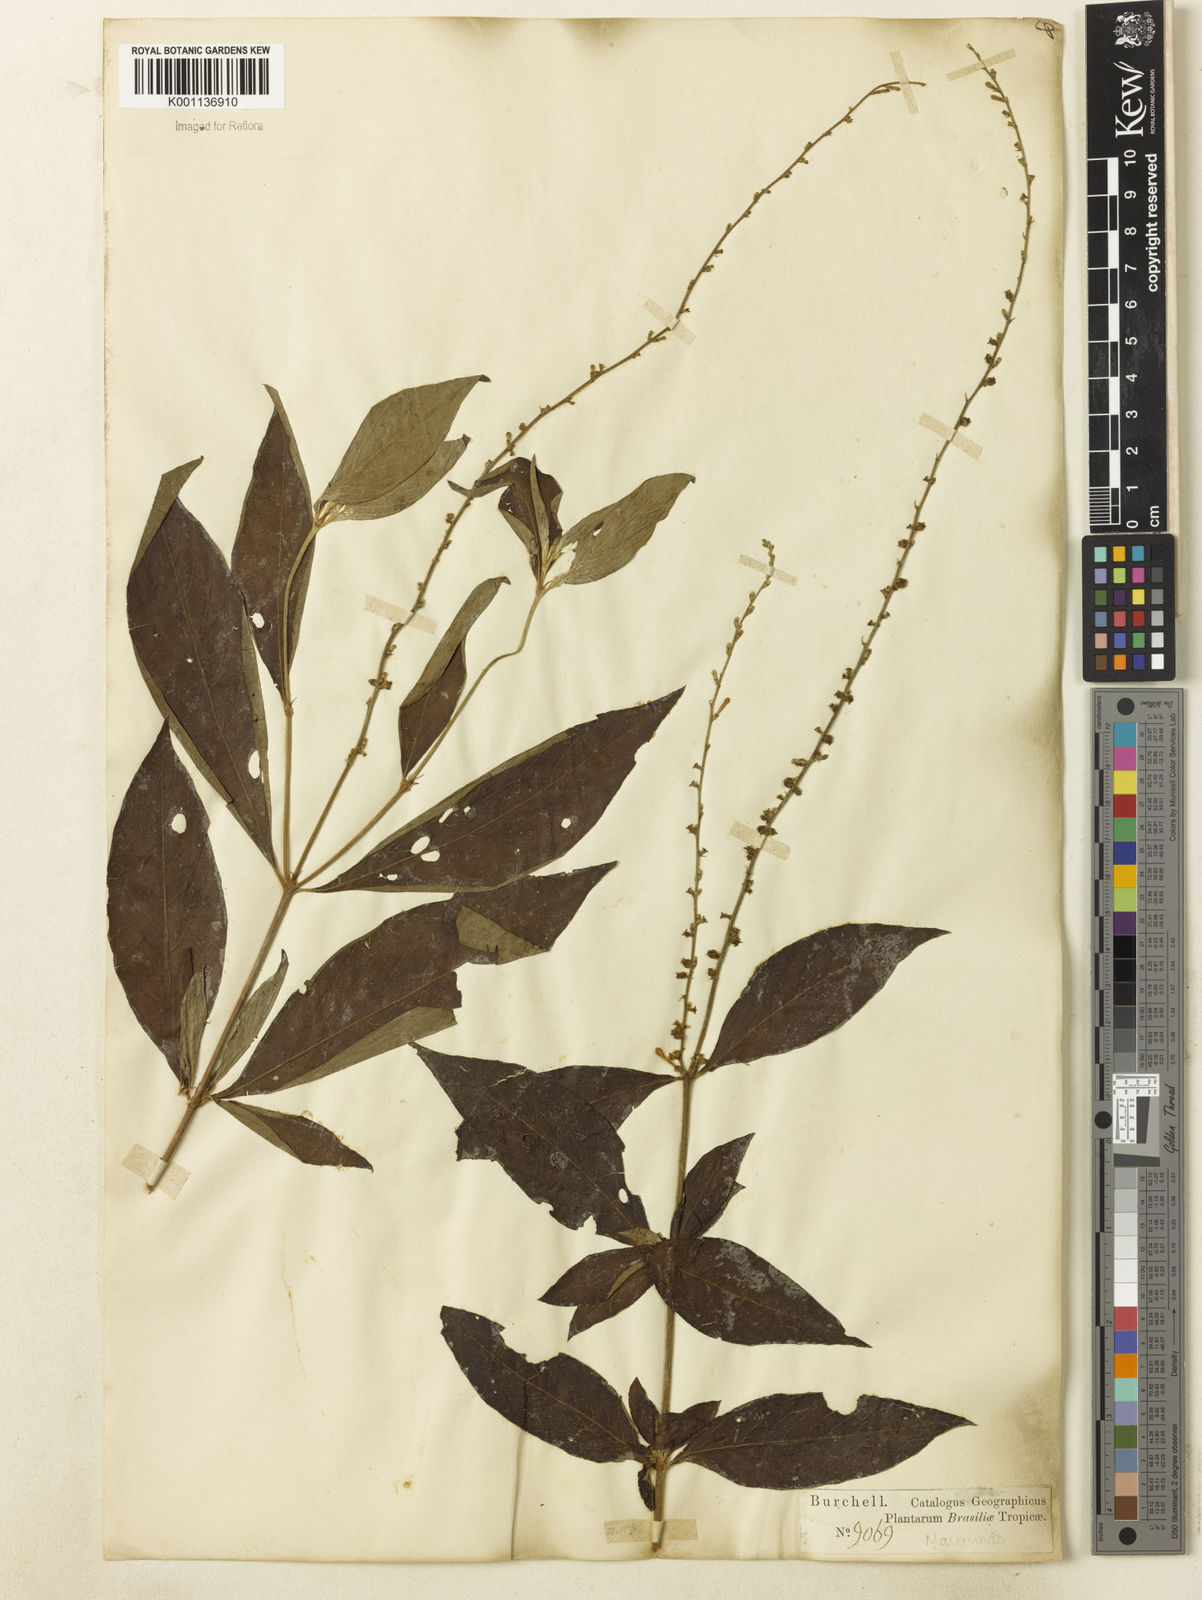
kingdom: Plantae
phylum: Tracheophyta
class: Magnoliopsida
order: Gentianales
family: Rubiaceae
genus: Gonzalagunia
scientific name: Gonzalagunia dicocca
